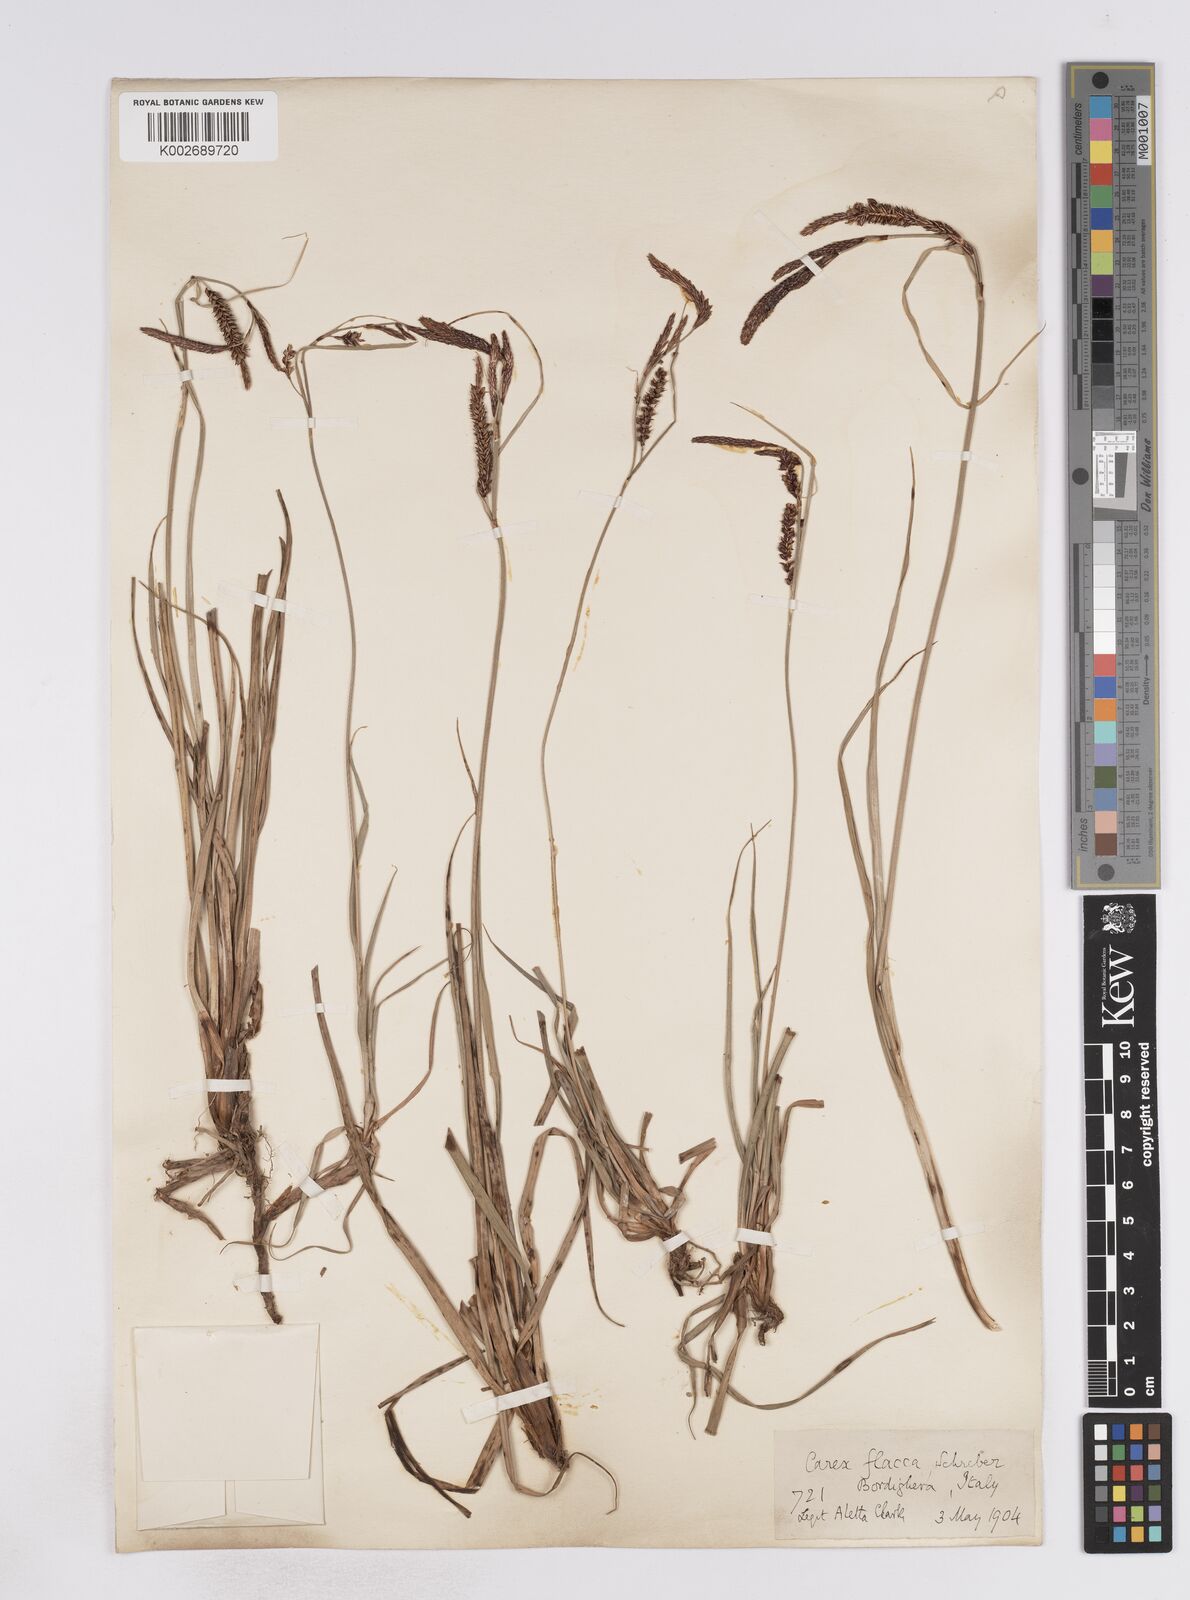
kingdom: Plantae
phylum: Tracheophyta
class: Liliopsida
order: Poales
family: Cyperaceae
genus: Carex
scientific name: Carex flacca
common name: Glaucous sedge
